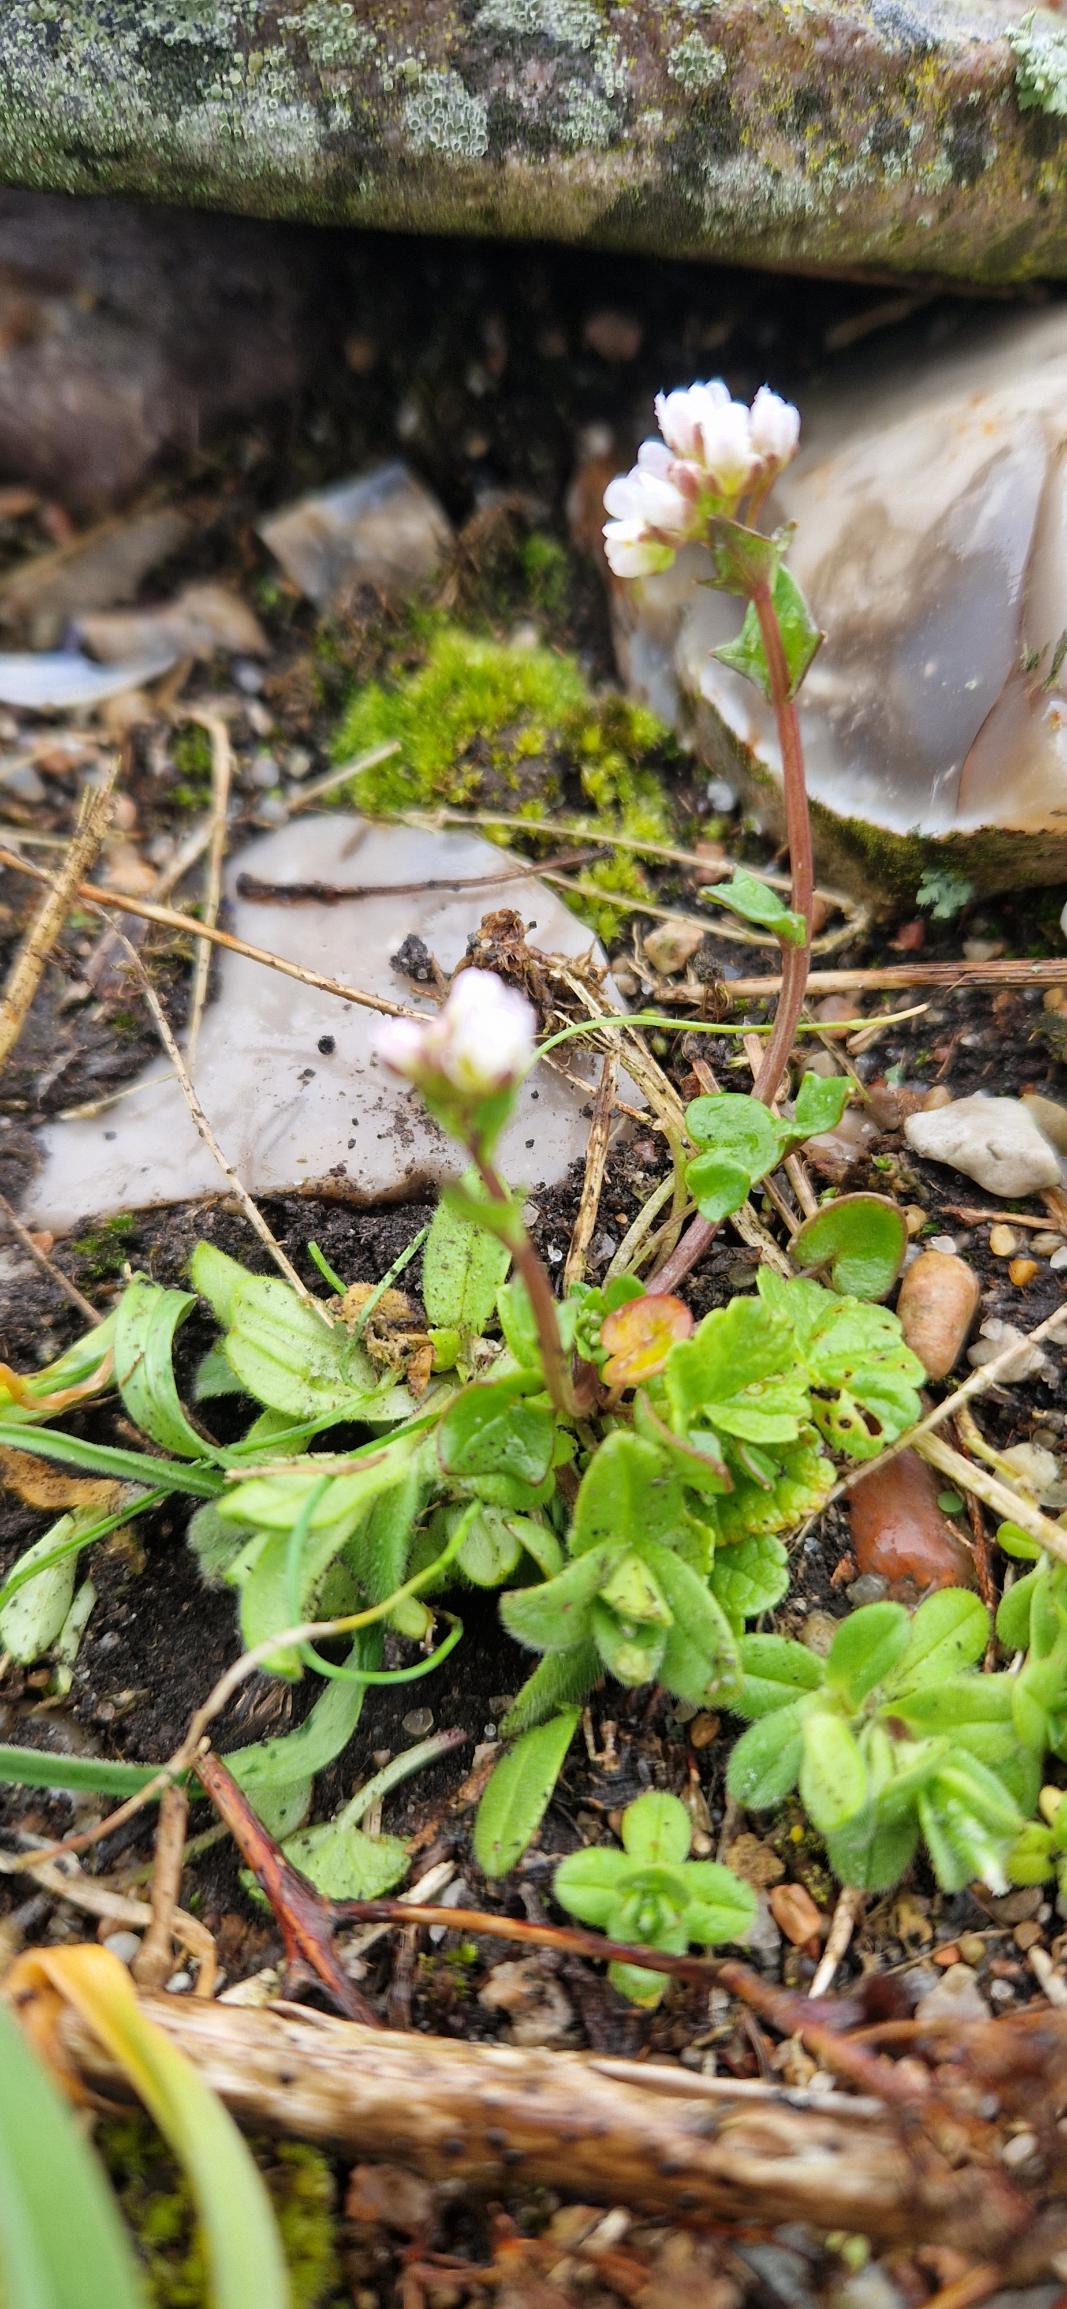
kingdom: Plantae
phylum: Tracheophyta
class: Magnoliopsida
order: Brassicales
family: Brassicaceae
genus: Cochlearia
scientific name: Cochlearia danica
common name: Dansk kokleare
